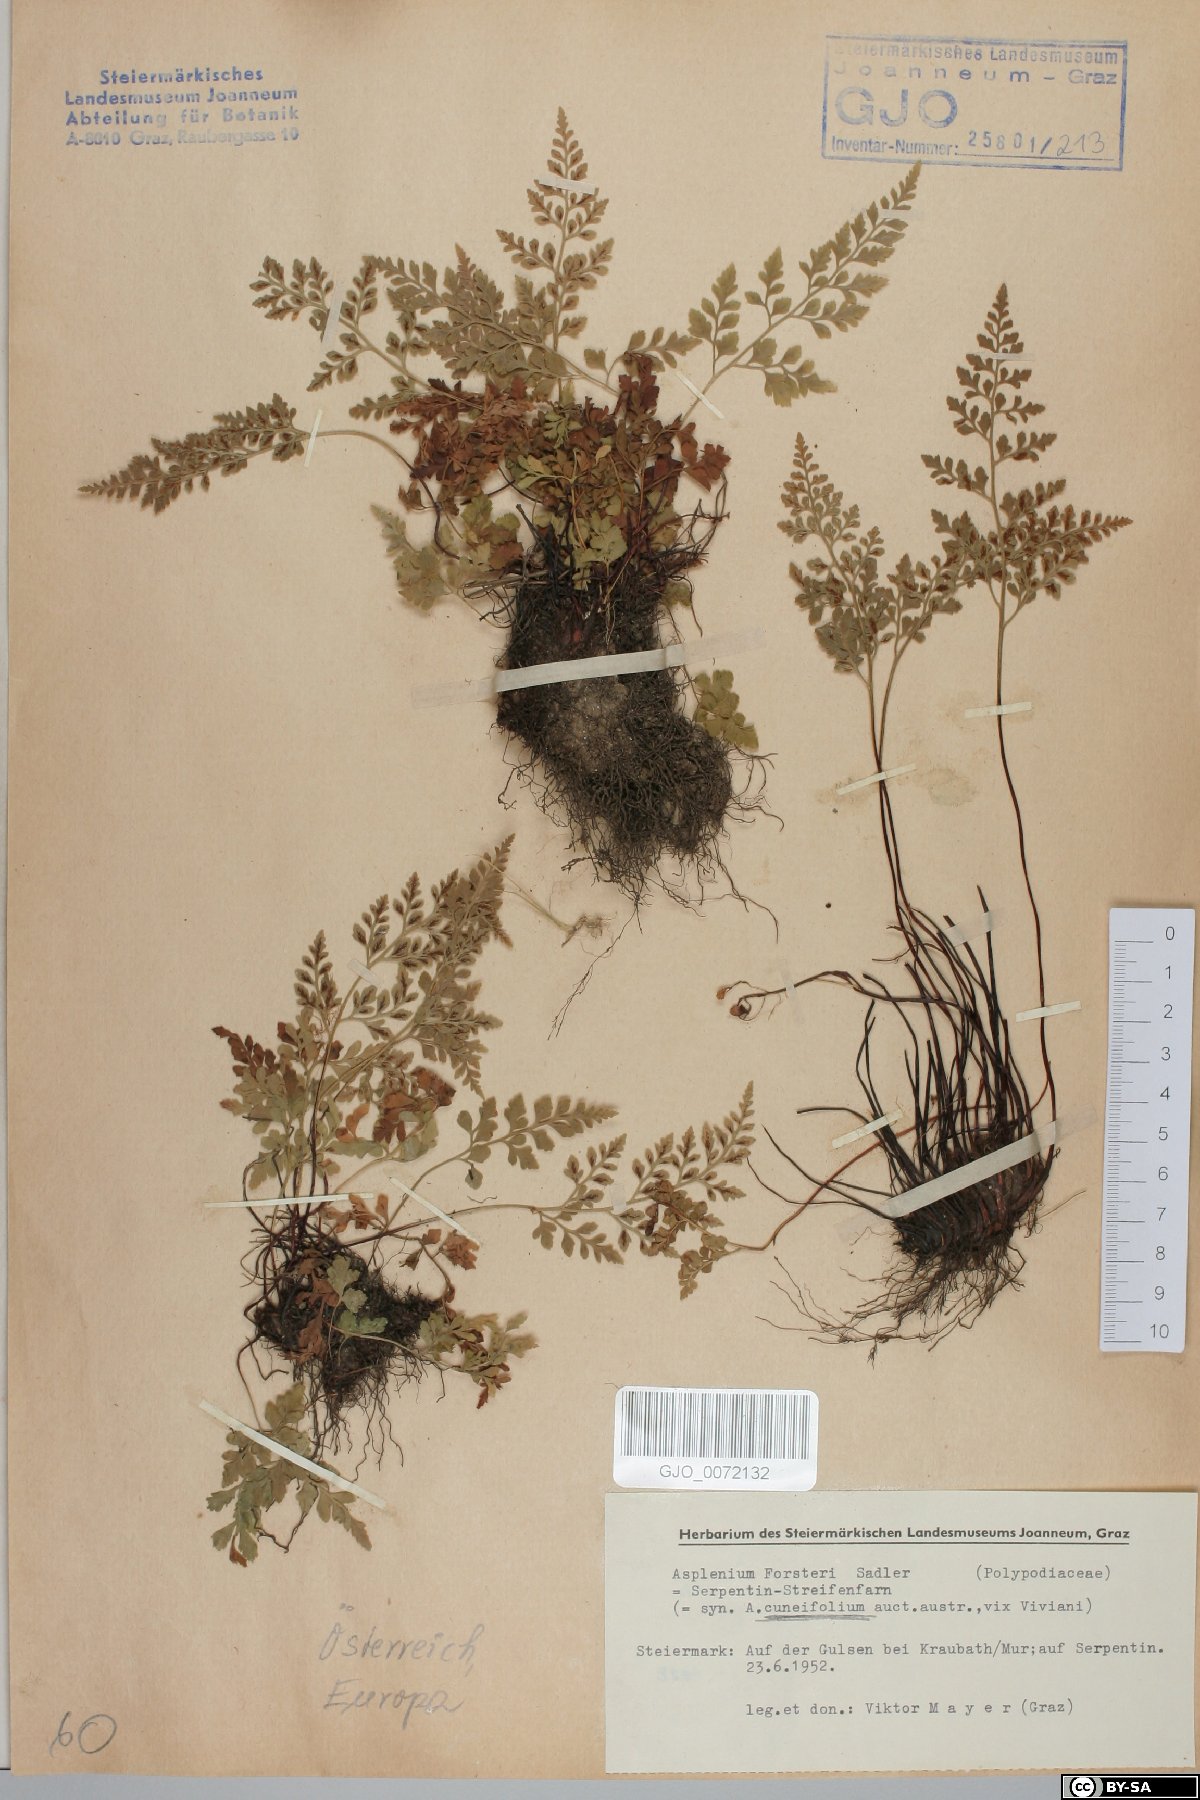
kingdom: Plantae
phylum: Tracheophyta
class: Polypodiopsida
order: Polypodiales
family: Aspleniaceae
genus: Asplenium
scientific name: Asplenium cuneifolium
